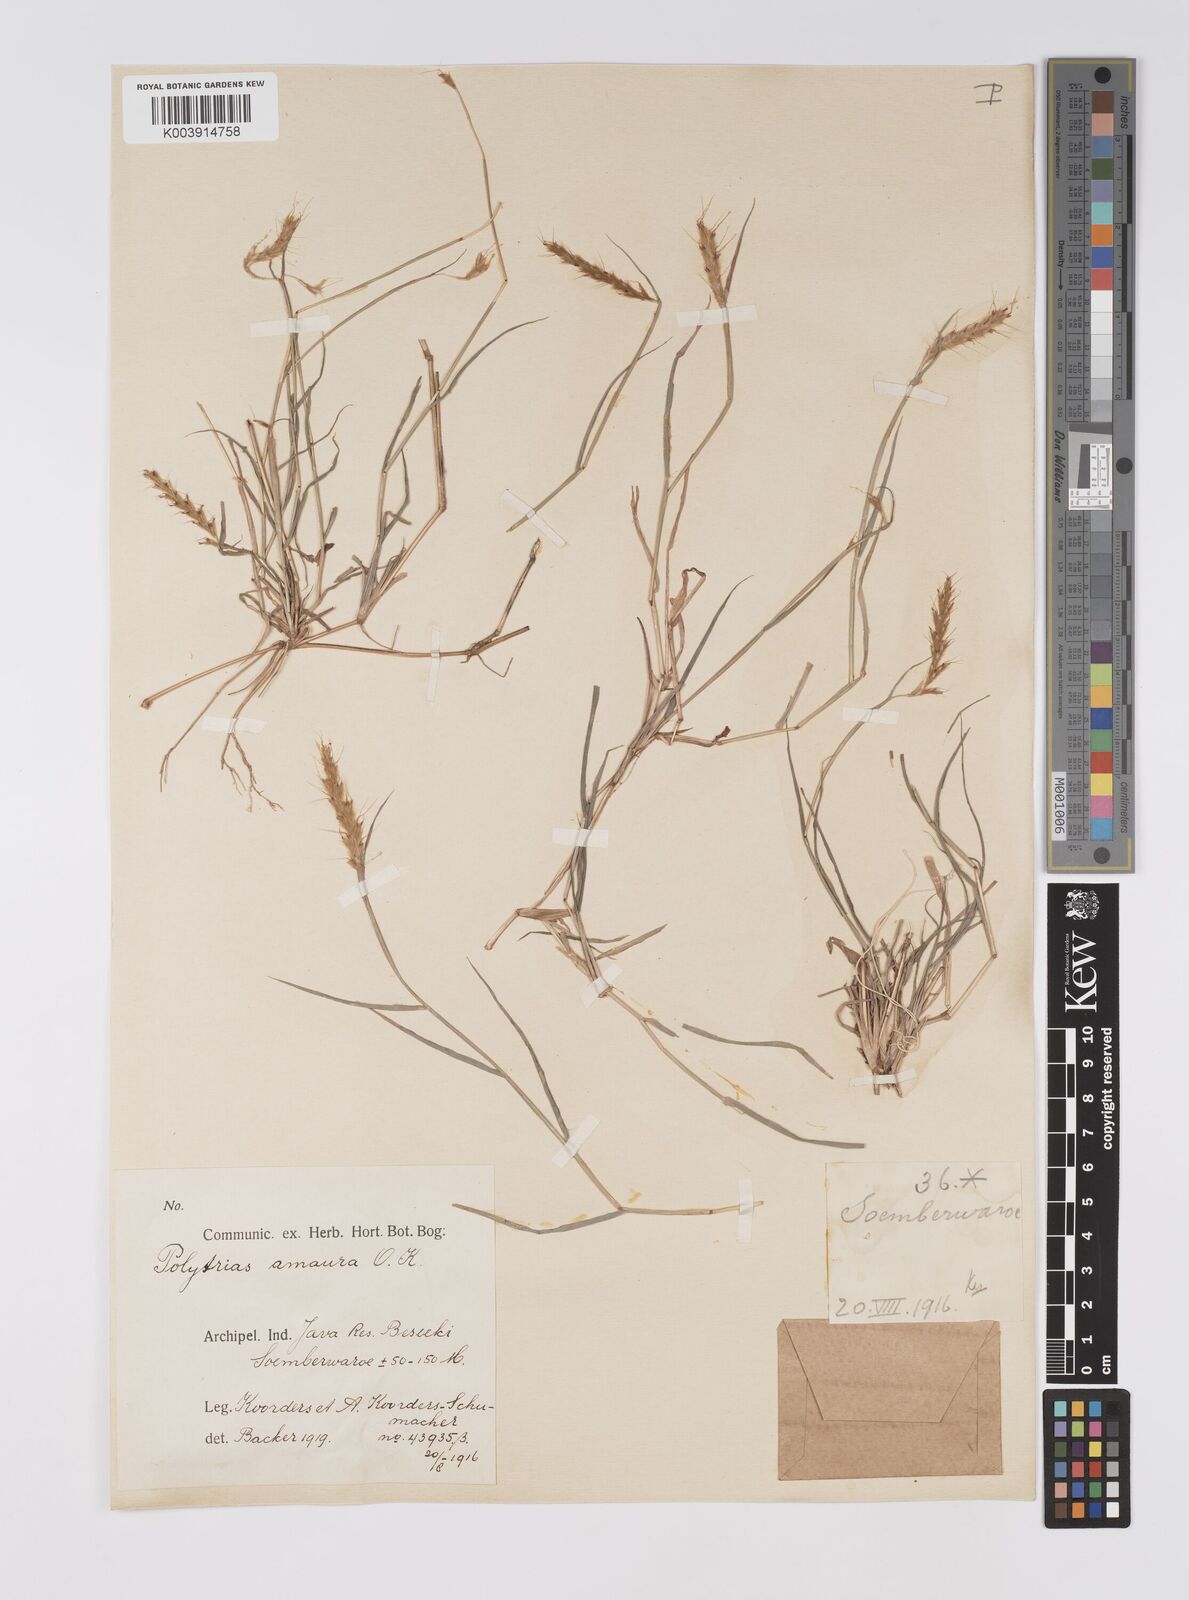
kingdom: Plantae
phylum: Tracheophyta
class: Liliopsida
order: Poales
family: Poaceae
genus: Polytrias
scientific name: Polytrias
